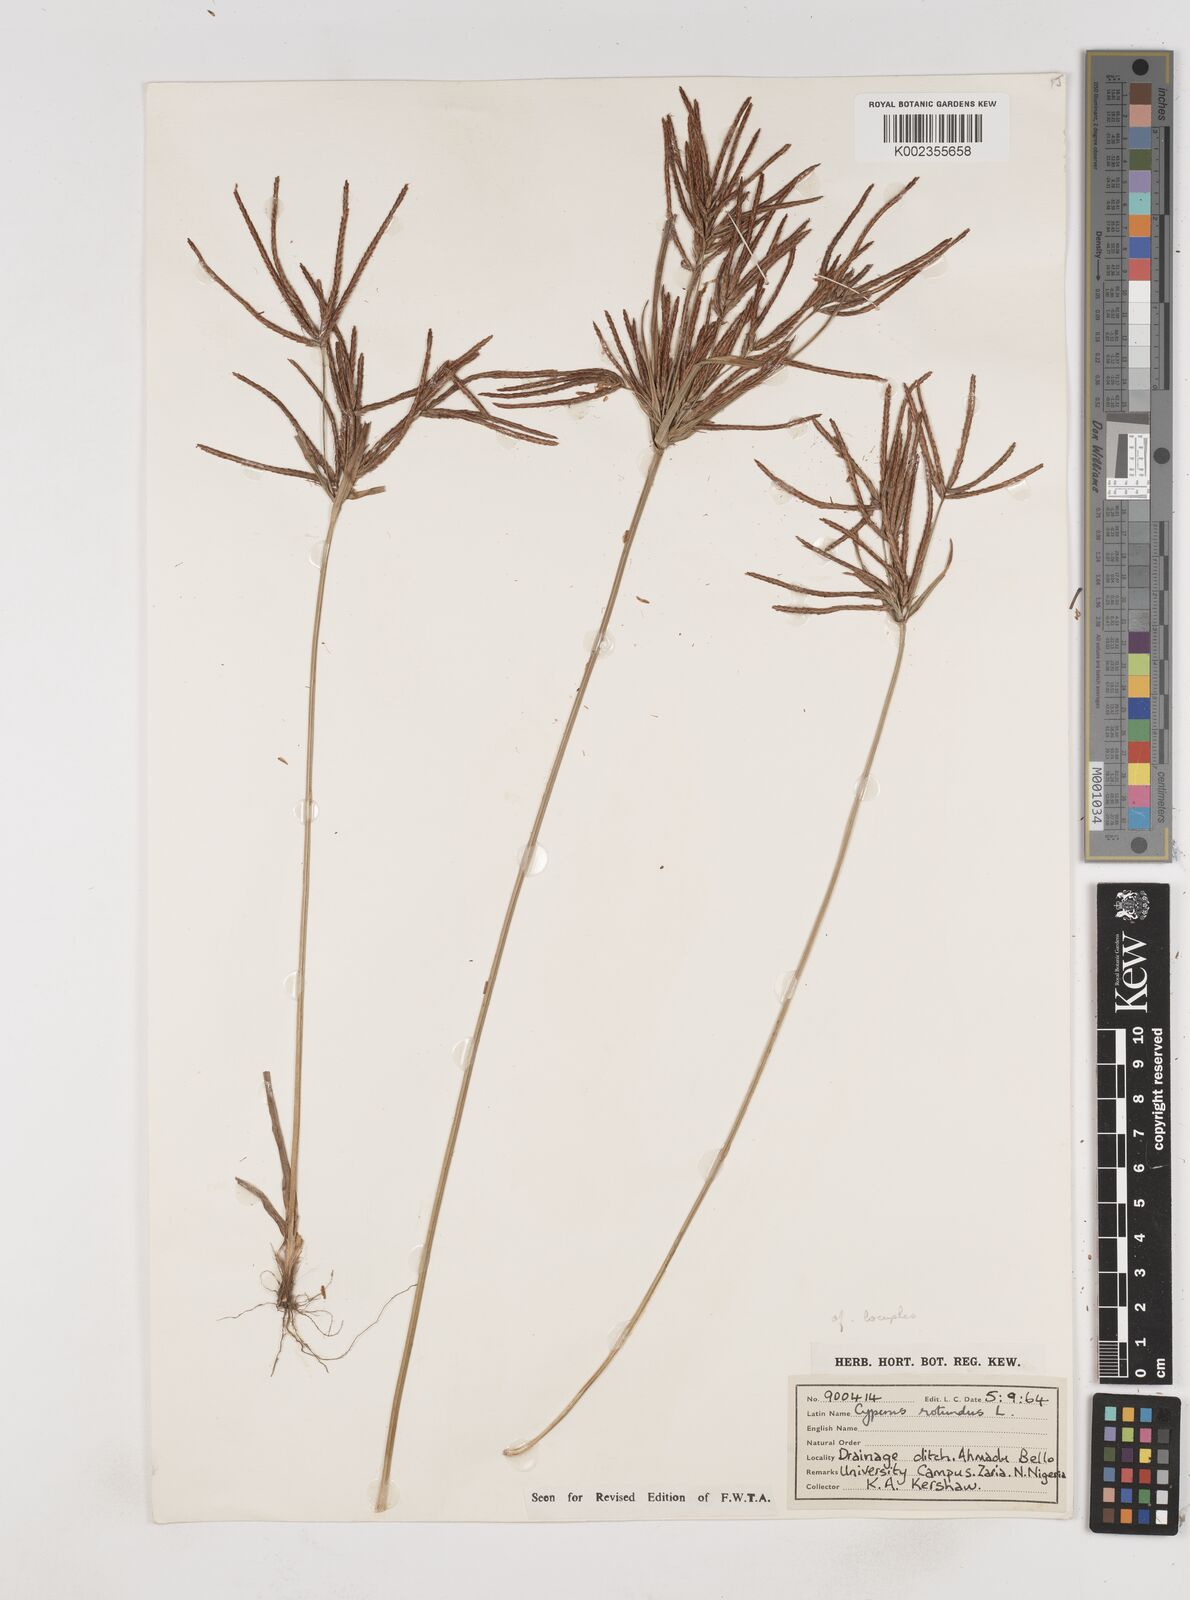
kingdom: Plantae
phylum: Tracheophyta
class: Liliopsida
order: Poales
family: Cyperaceae
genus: Cyperus
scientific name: Cyperus rotundus
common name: Nutgrass
